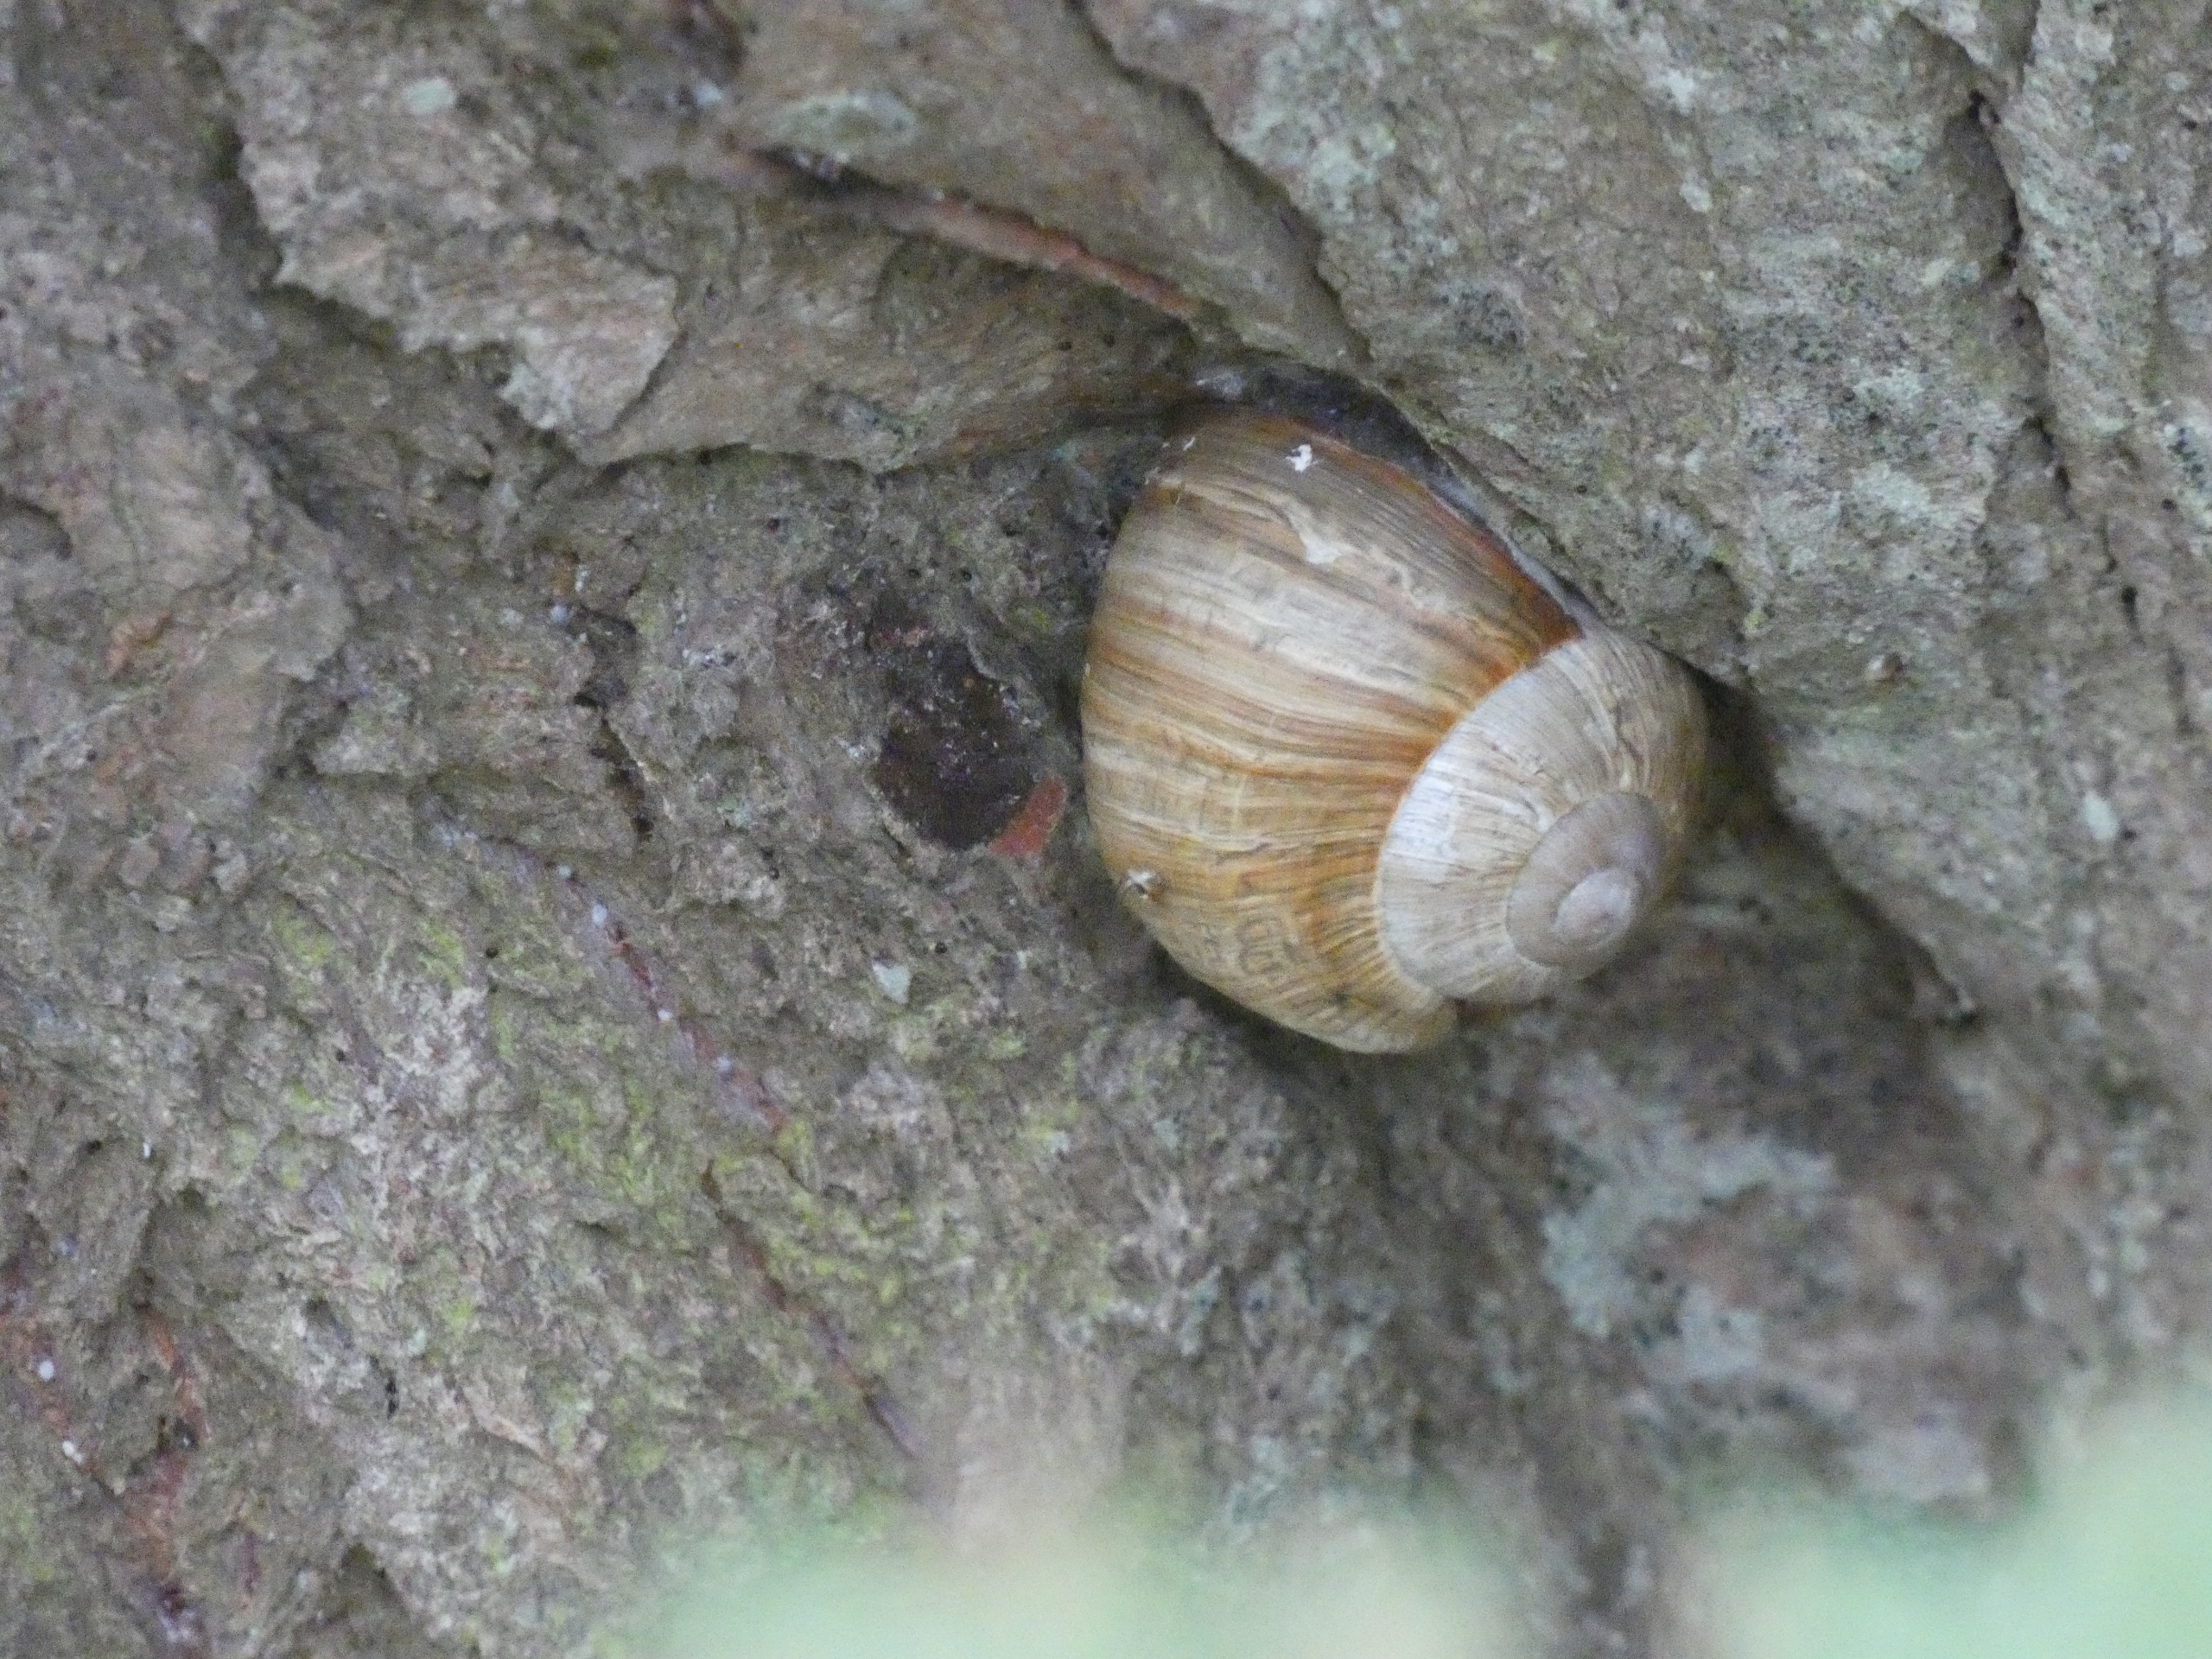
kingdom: Animalia
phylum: Mollusca
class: Gastropoda
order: Stylommatophora
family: Helicidae
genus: Helix
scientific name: Helix pomatia
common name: Vinbjergsnegl
